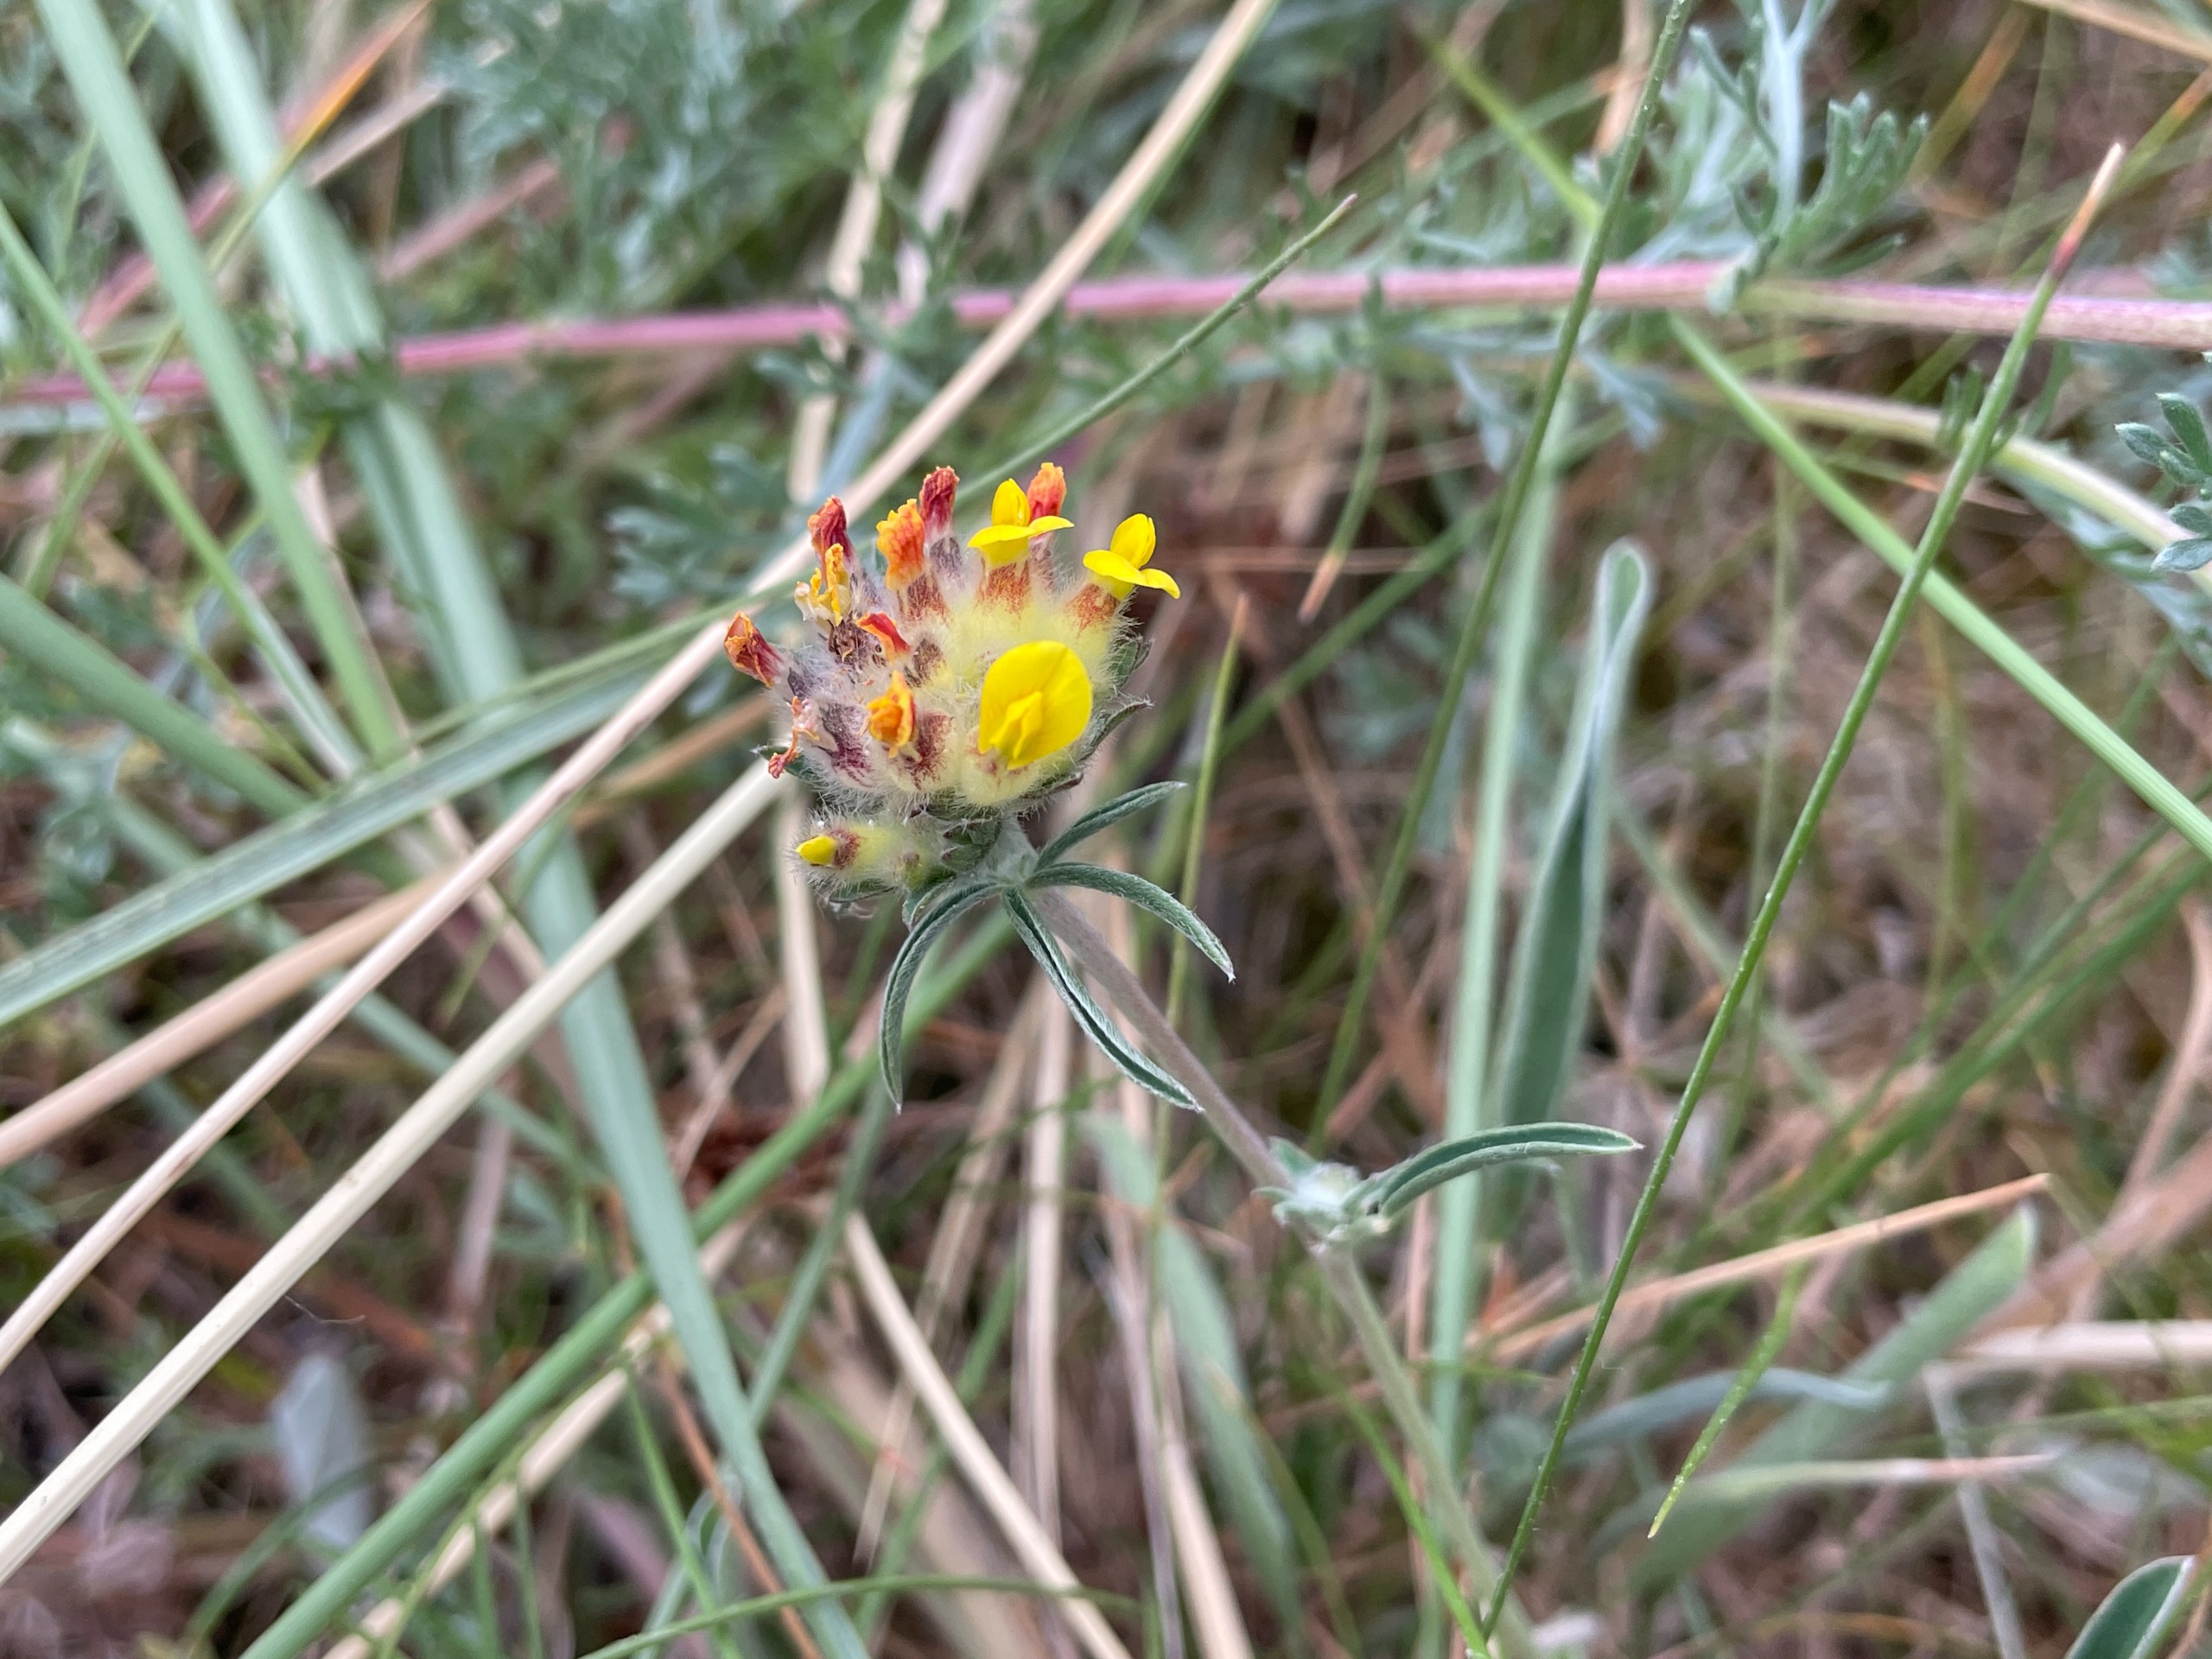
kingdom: Plantae
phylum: Tracheophyta
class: Magnoliopsida
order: Fabales
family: Fabaceae
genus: Anthyllis
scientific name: Anthyllis vulneraria
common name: Rundbælg
